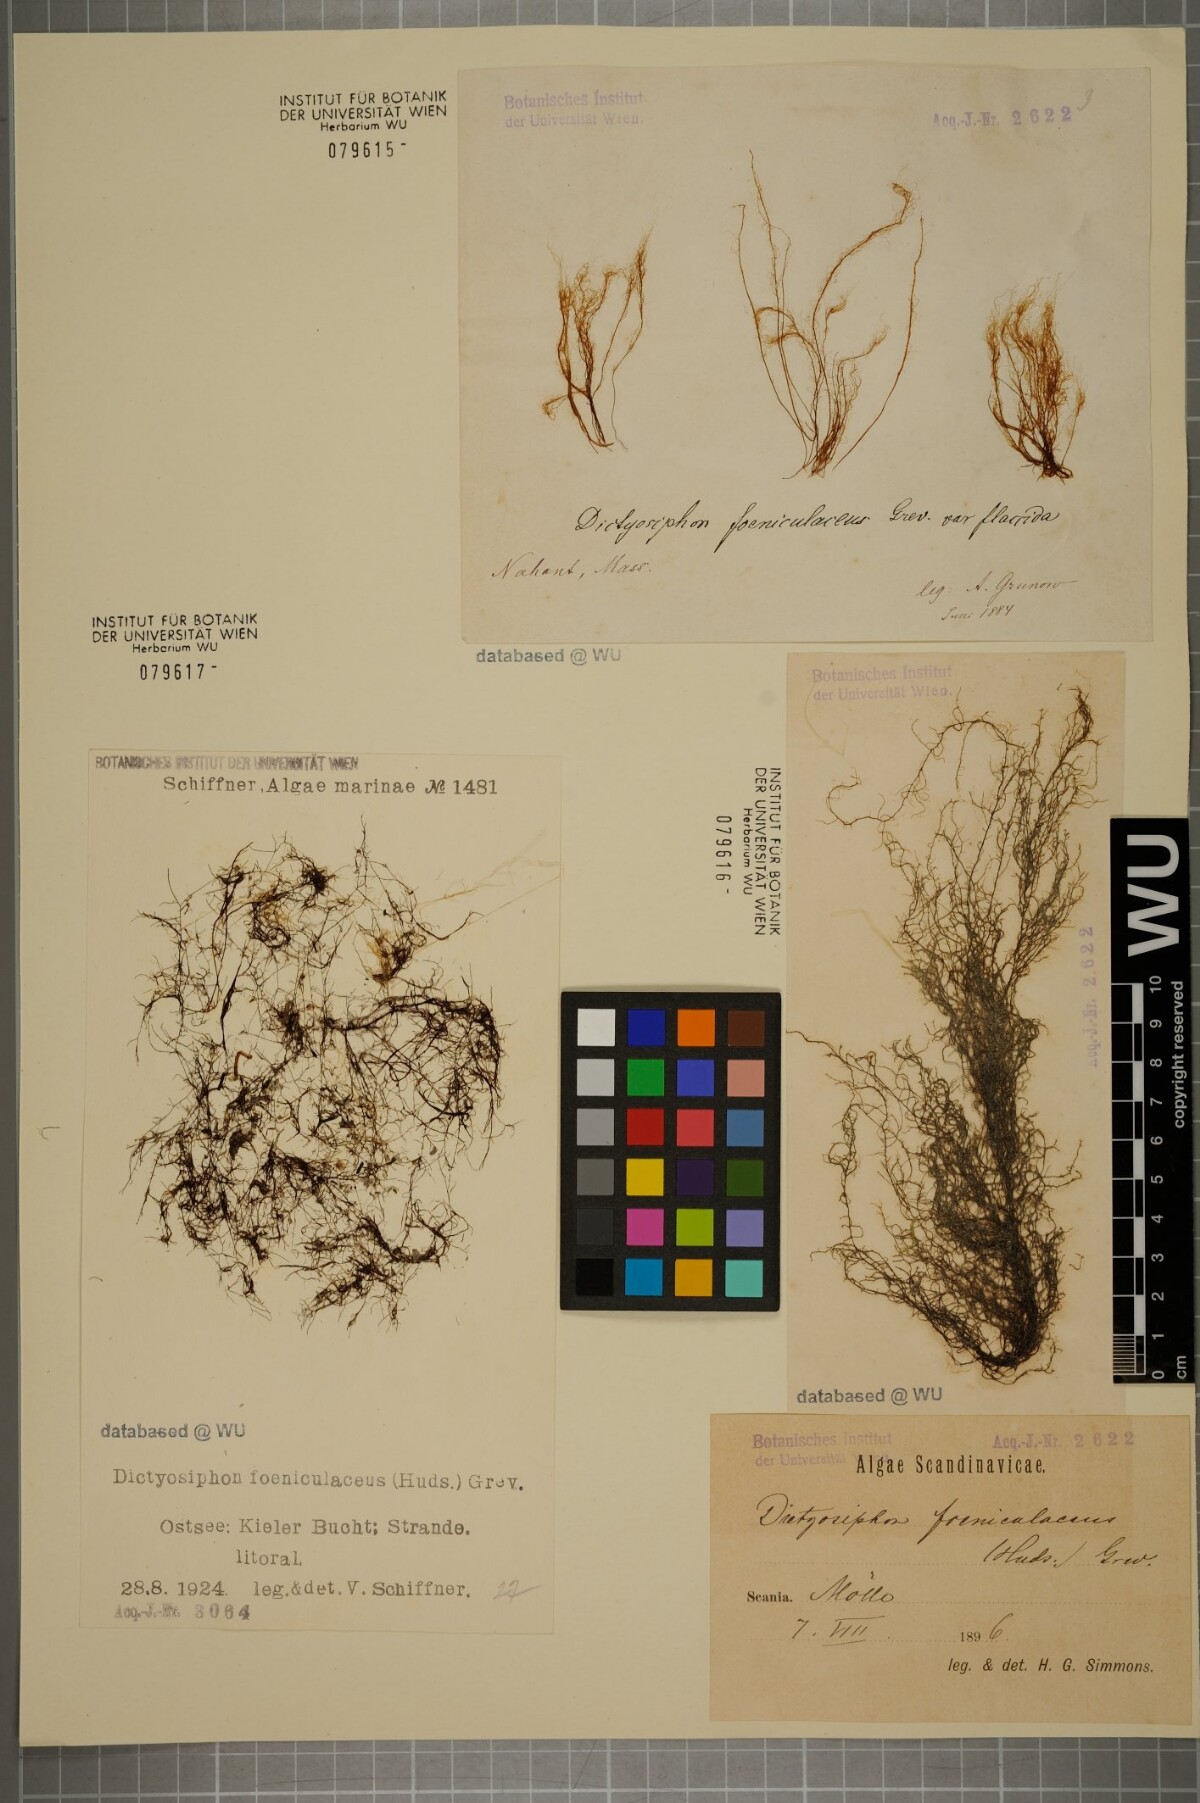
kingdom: Chromista
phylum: Ochrophyta
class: Phaeophyceae
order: Ectocarpales
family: Chordariaceae
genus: Dictyosiphon
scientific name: Dictyosiphon foeniculaceus
